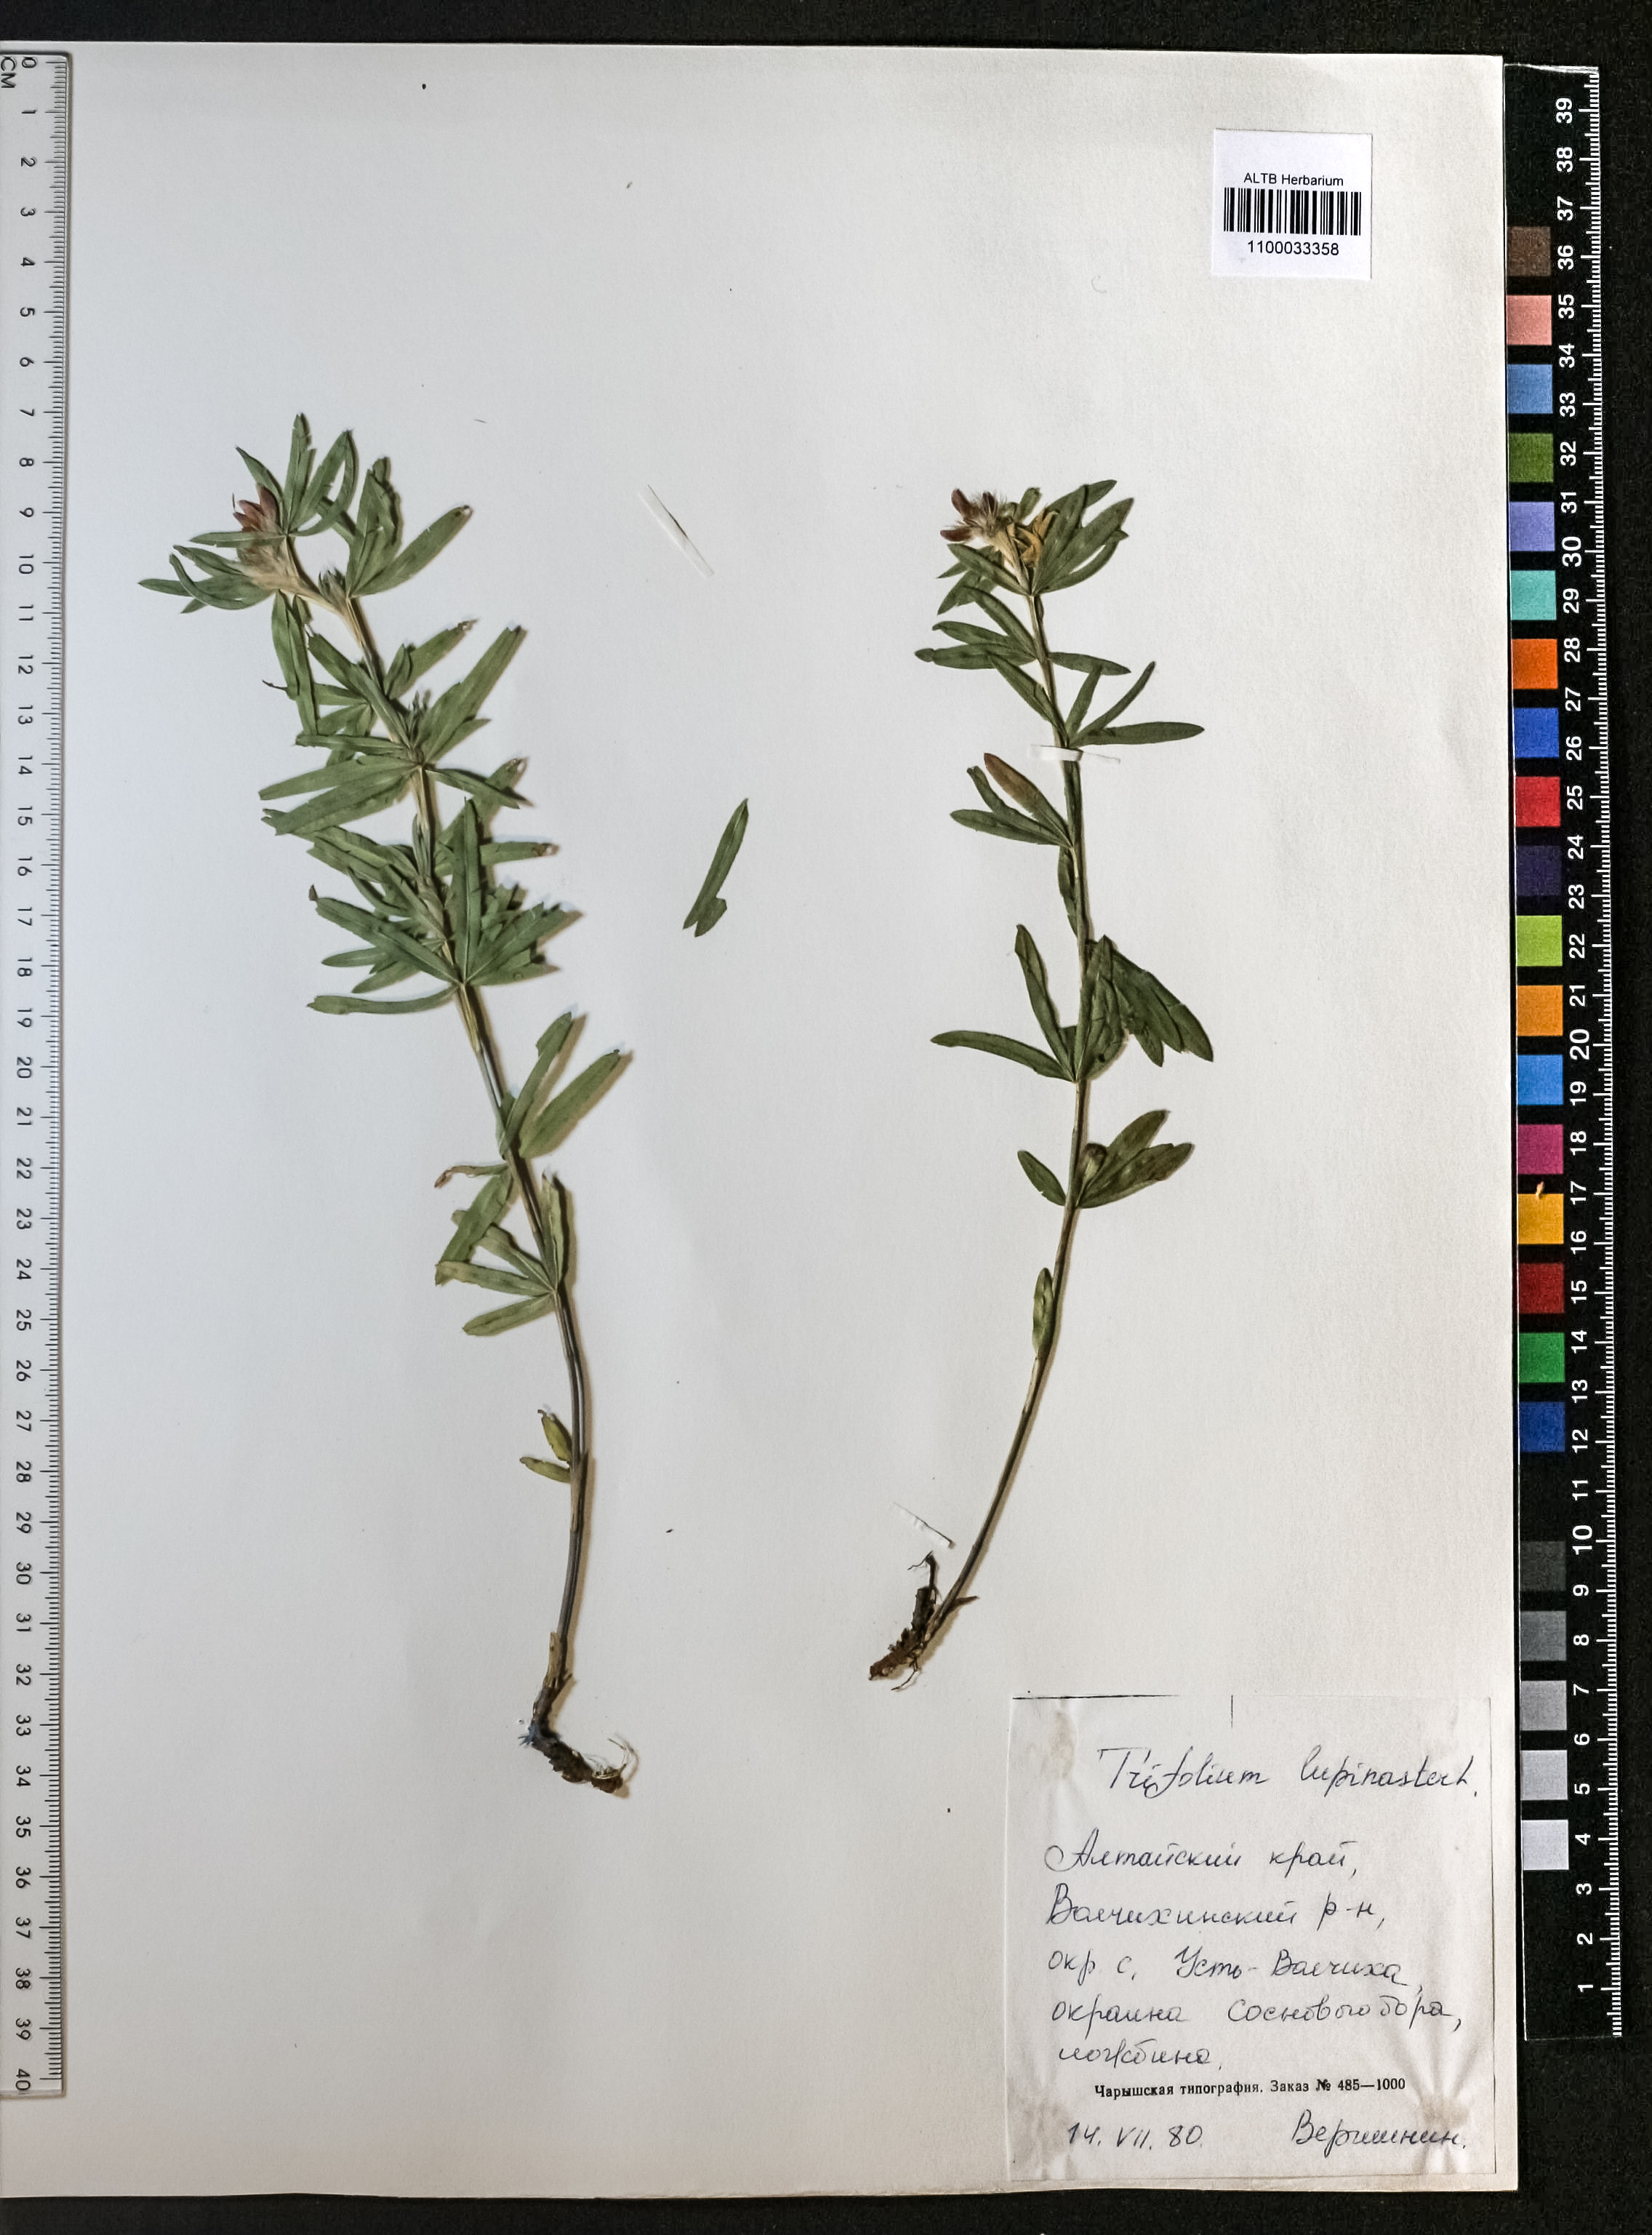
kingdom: Plantae
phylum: Tracheophyta
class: Magnoliopsida
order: Fabales
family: Fabaceae
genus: Trifolium
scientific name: Trifolium lupinaster
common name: Lupine clover
